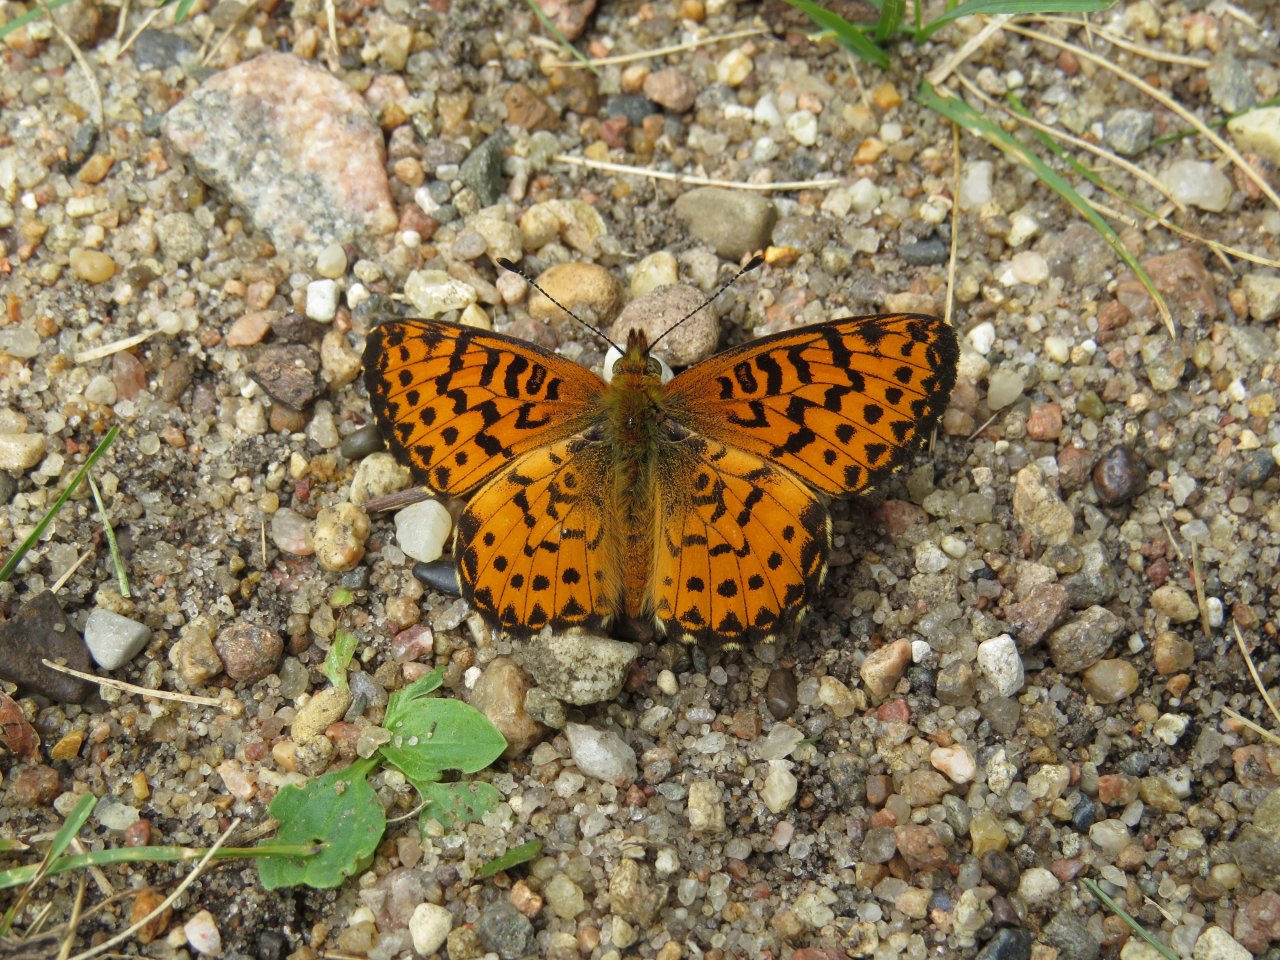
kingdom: Animalia
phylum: Arthropoda
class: Insecta
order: Lepidoptera
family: Nymphalidae
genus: Boloria
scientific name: Boloria selene
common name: Silver-bordered Fritillary
